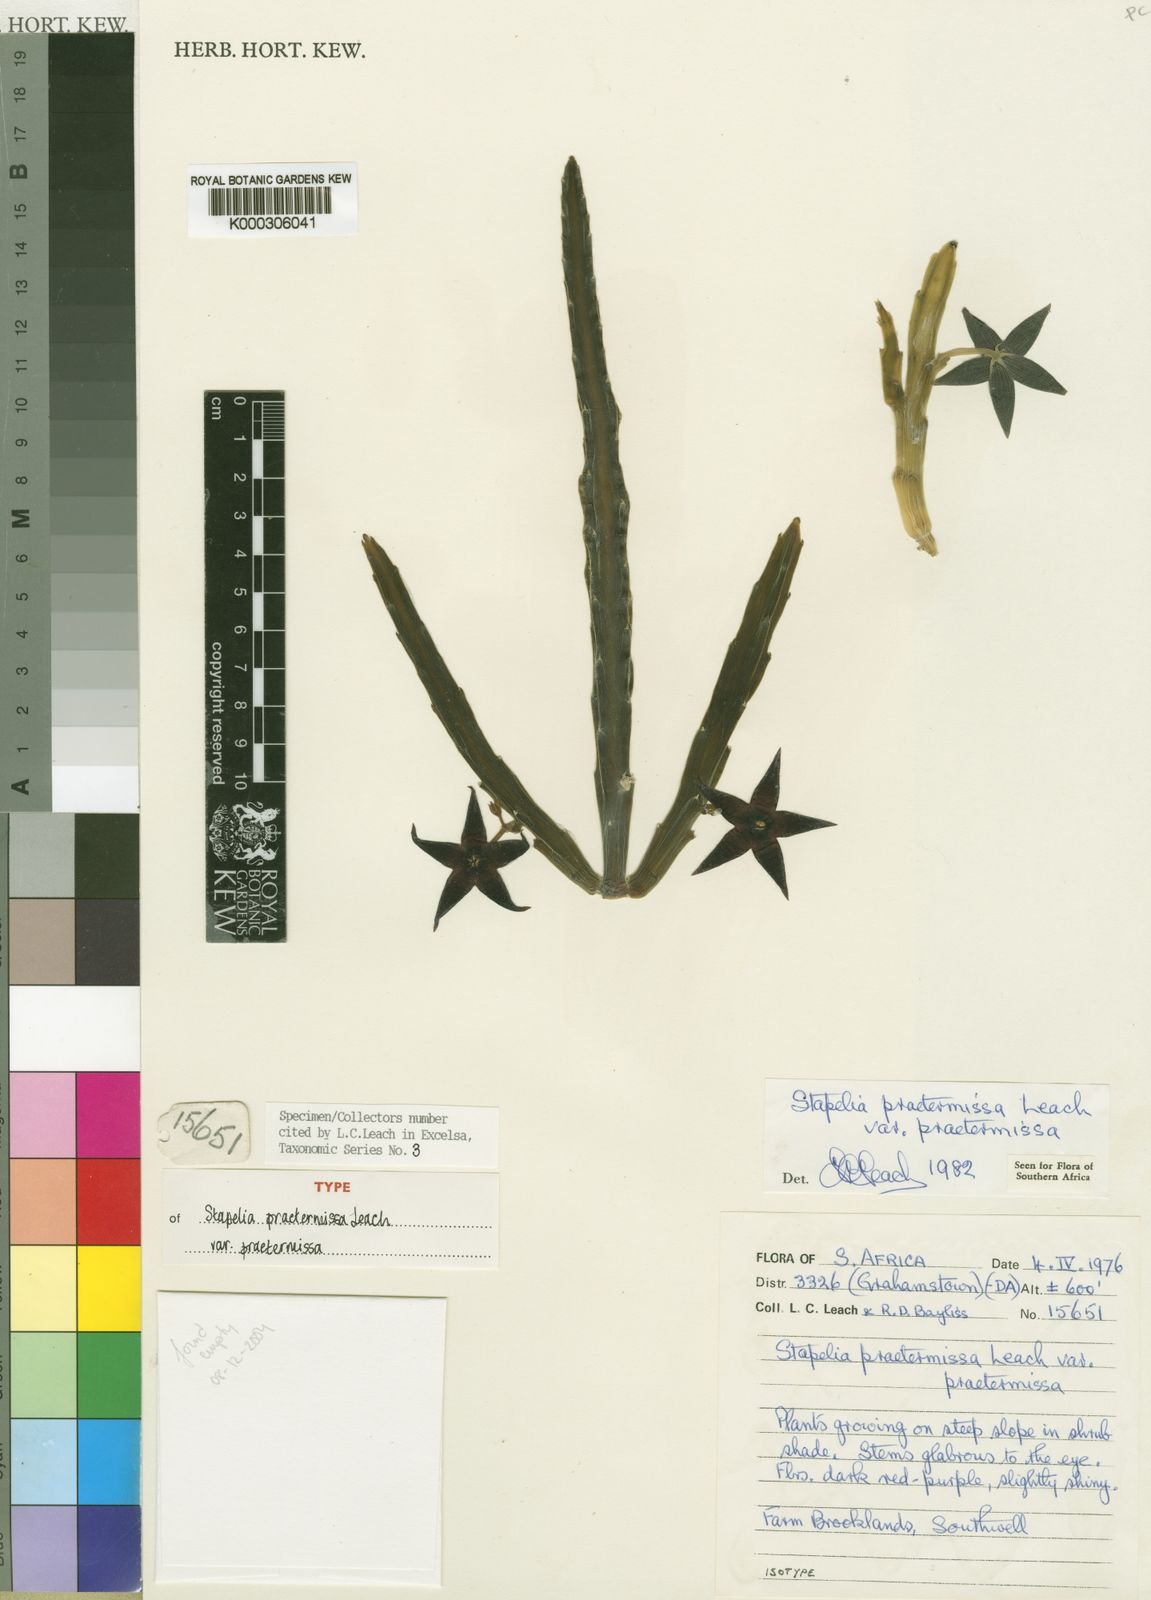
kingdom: Plantae
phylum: Tracheophyta
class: Magnoliopsida
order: Gentianales
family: Apocynaceae
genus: Ceropegia
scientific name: Ceropegia pulvinata
